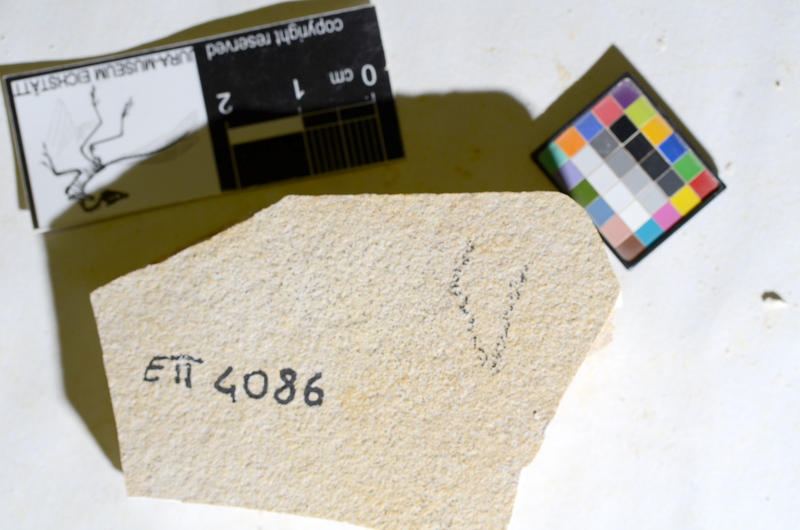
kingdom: Animalia
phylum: Chordata
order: Salmoniformes
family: Orthogonikleithridae
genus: Orthogonikleithrus
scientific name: Orthogonikleithrus hoelli
